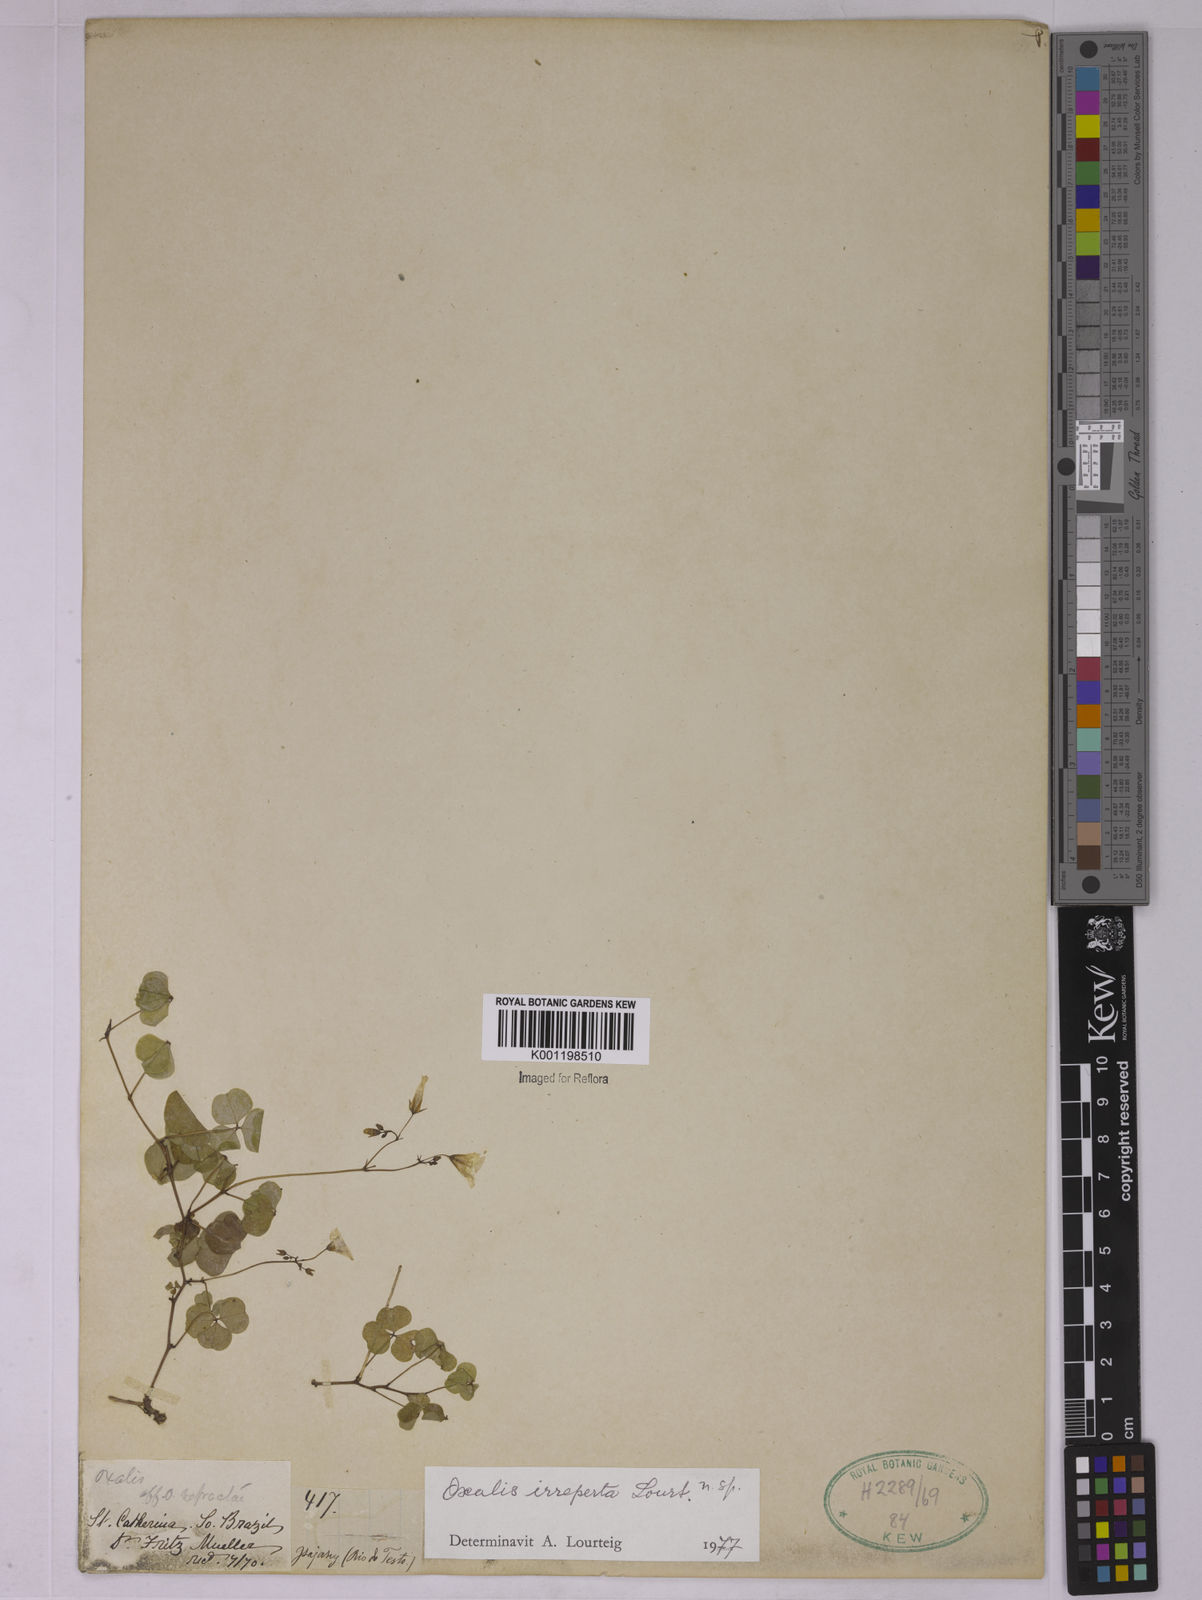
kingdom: Plantae
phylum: Tracheophyta
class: Magnoliopsida
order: Oxalidales
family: Oxalidaceae
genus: Oxalis
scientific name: Oxalis riparia
